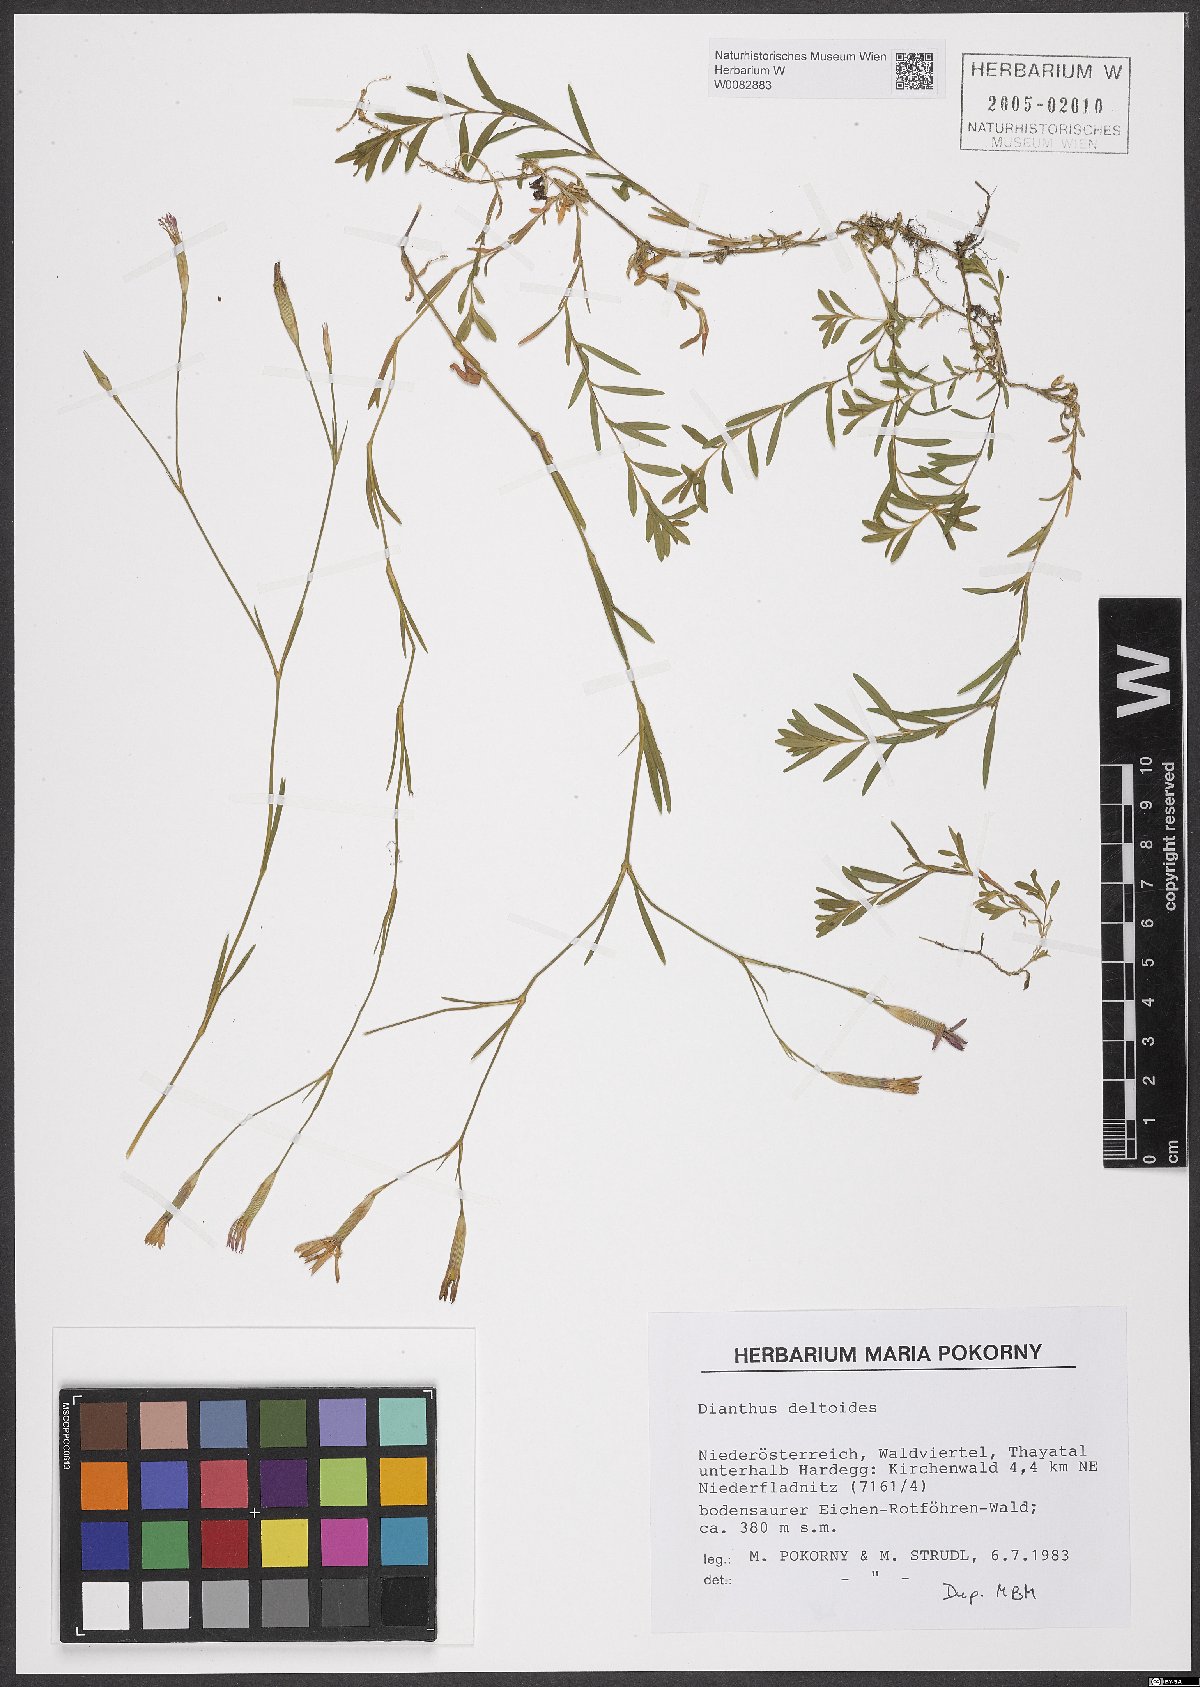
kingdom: Plantae
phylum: Tracheophyta
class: Magnoliopsida
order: Caryophyllales
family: Caryophyllaceae
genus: Dianthus
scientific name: Dianthus deltoides
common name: Maiden pink
